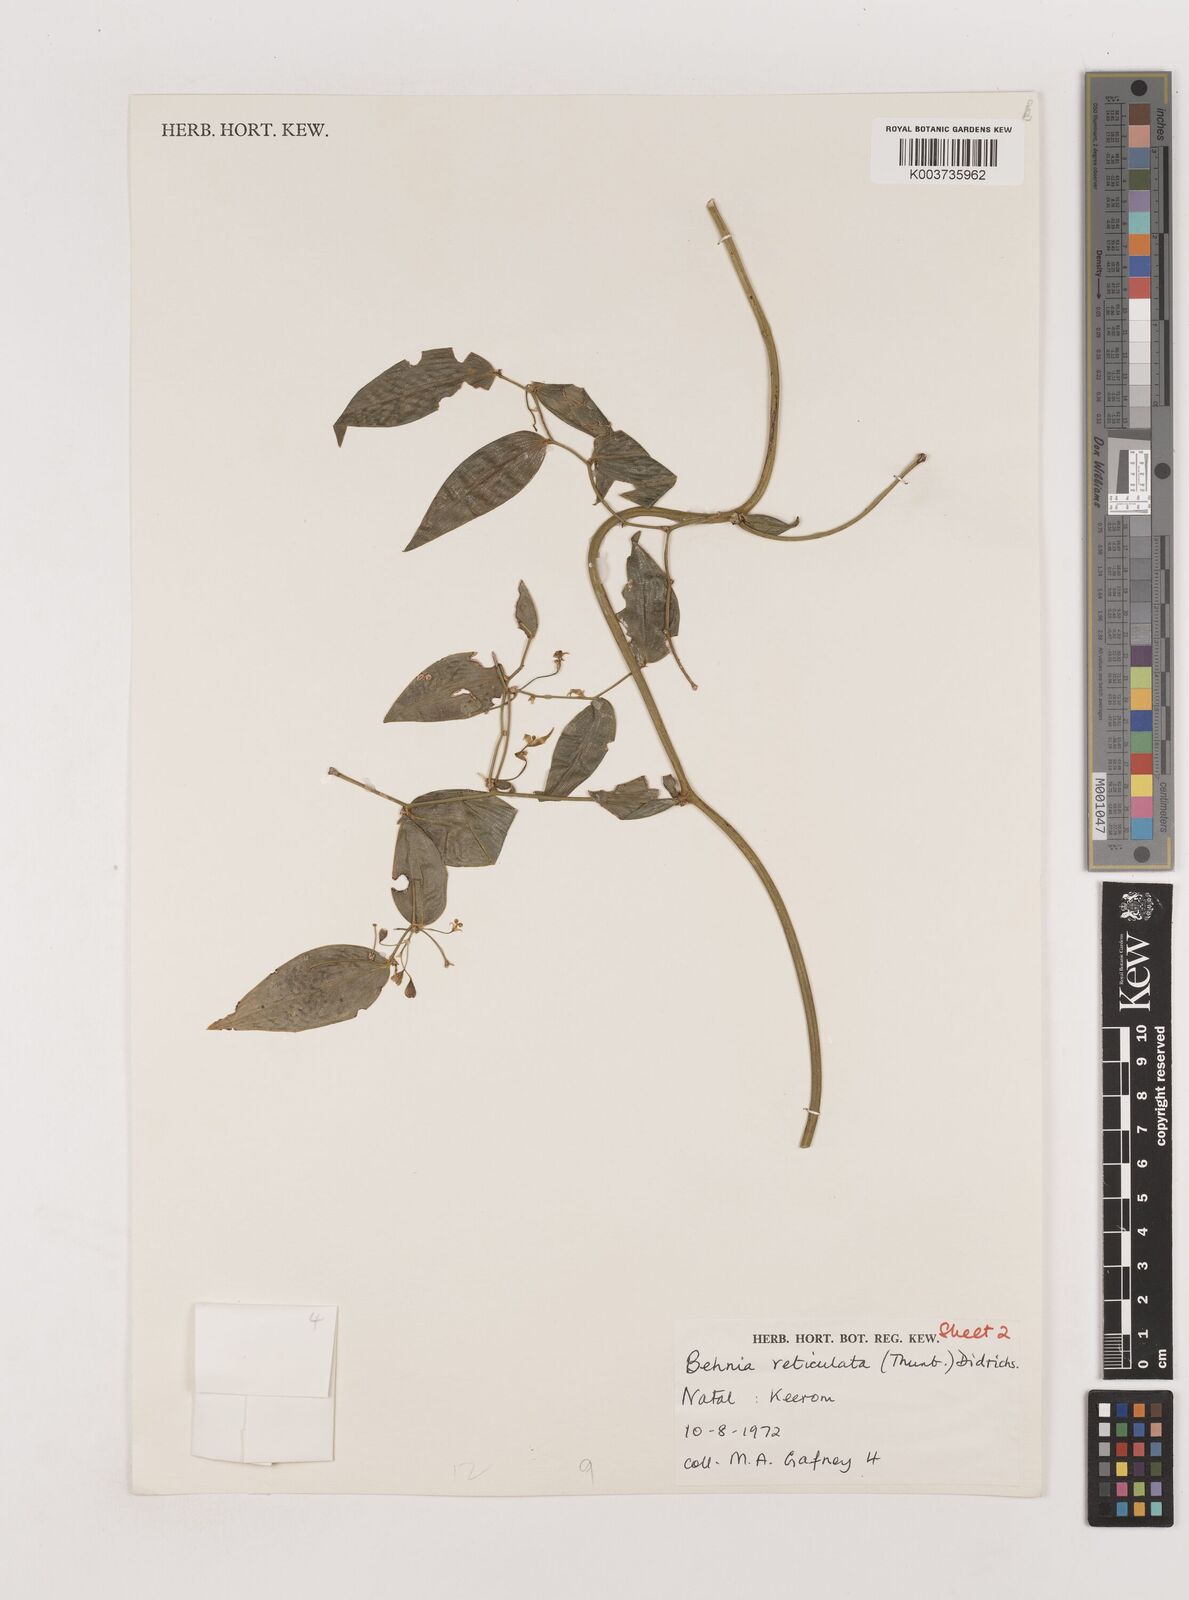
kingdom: Plantae
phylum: Tracheophyta
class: Liliopsida
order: Asparagales
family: Asparagaceae
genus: Behnia
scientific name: Behnia reticulata
